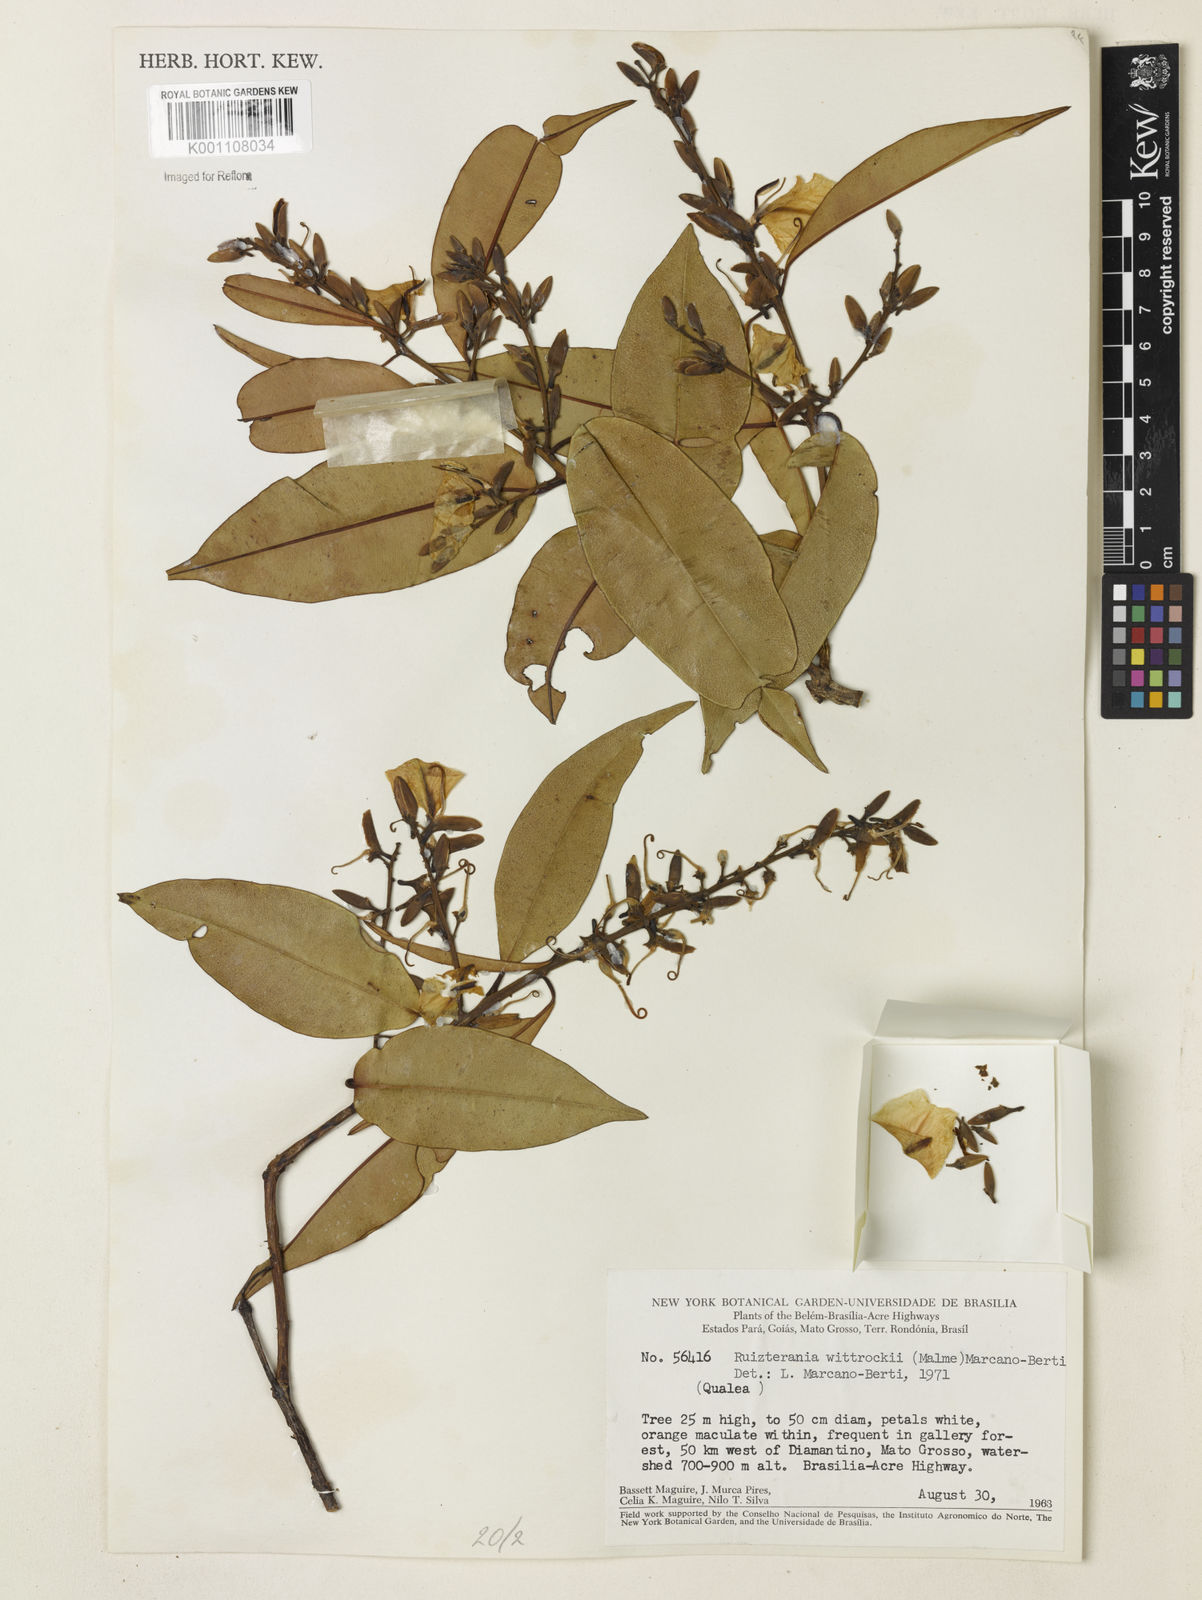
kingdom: Plantae
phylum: Tracheophyta
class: Magnoliopsida
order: Myrtales
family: Vochysiaceae
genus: Ruizterania
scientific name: Ruizterania wittrockii
